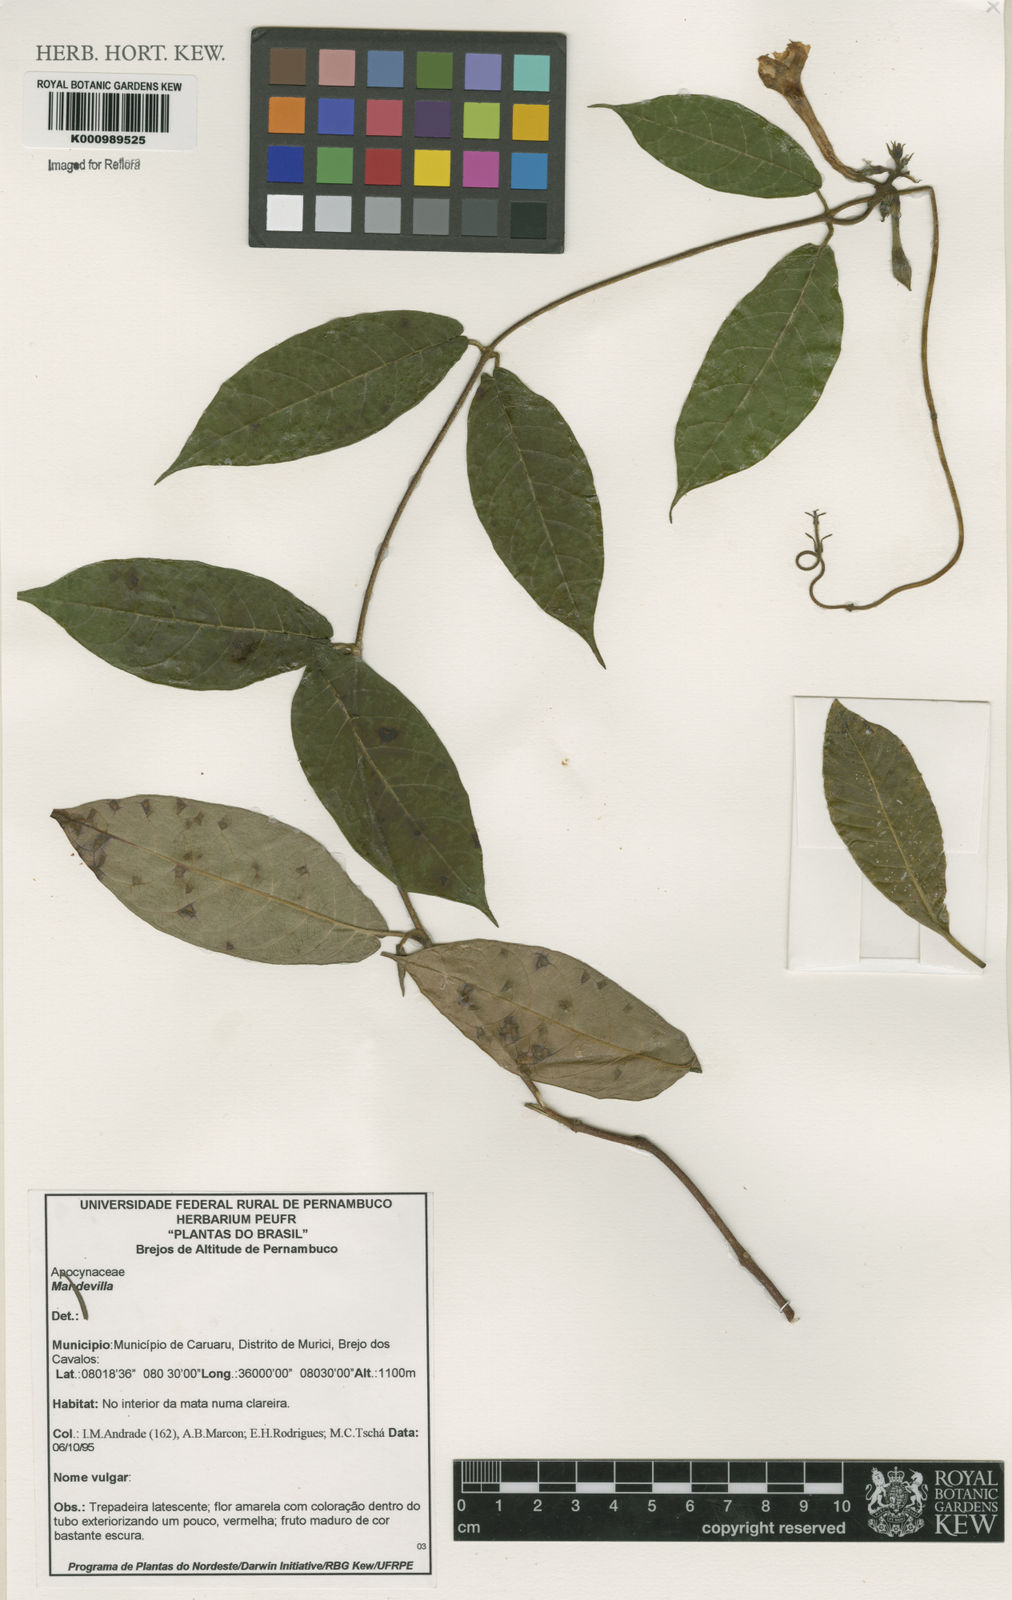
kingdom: Plantae
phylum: Tracheophyta
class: Magnoliopsida
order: Gentianales
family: Apocynaceae
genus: Mandevilla
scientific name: Mandevilla
